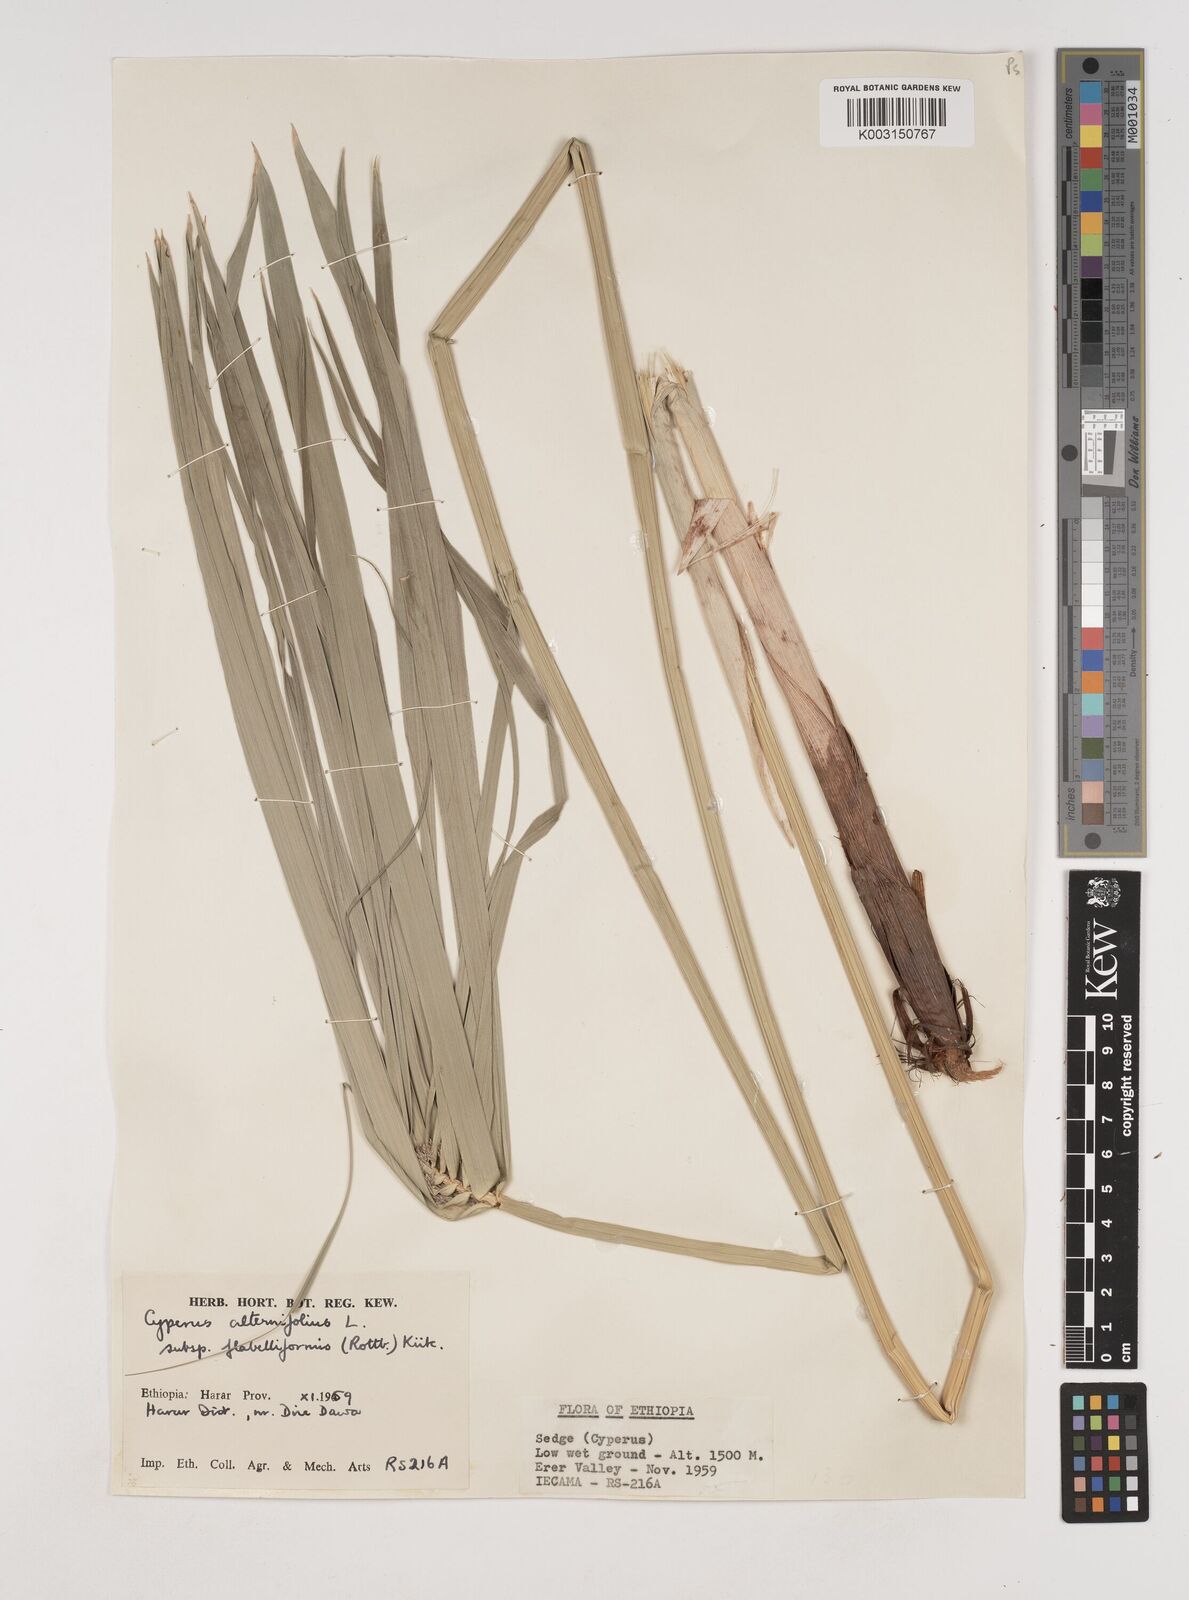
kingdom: Plantae
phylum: Tracheophyta
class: Liliopsida
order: Poales
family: Cyperaceae
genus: Cyperus
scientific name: Cyperus alternifolius
